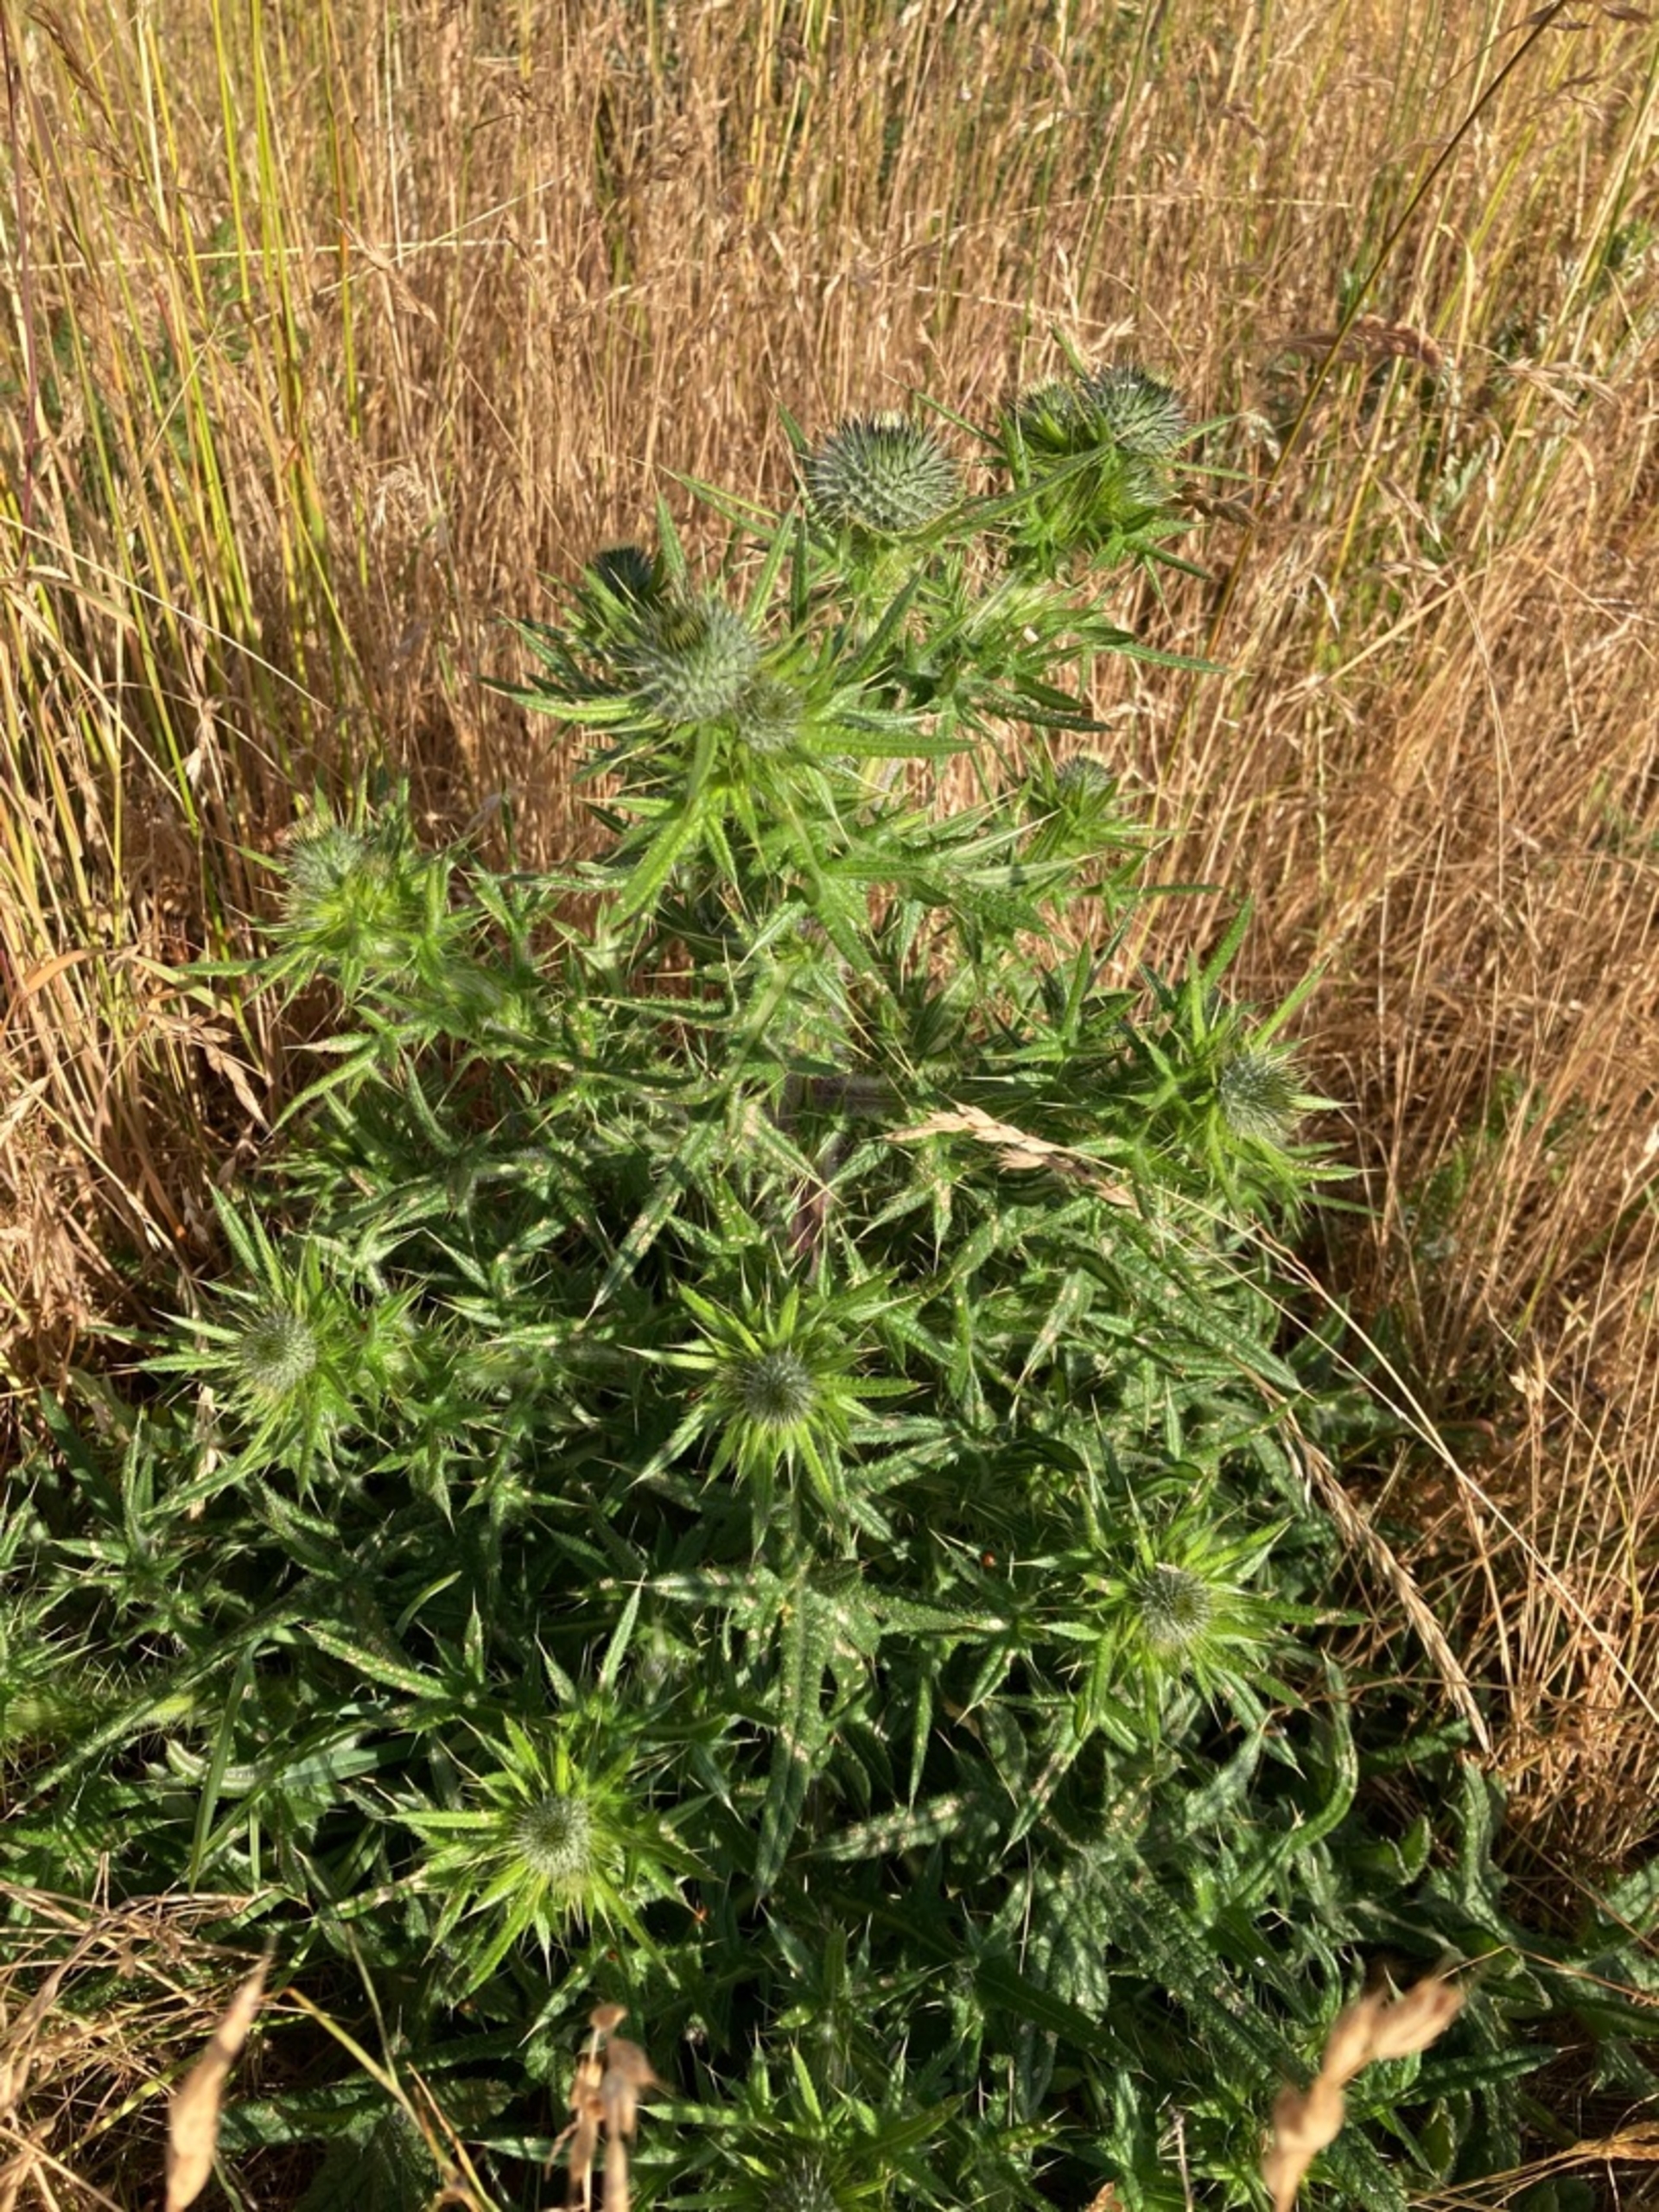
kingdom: Plantae
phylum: Tracheophyta
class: Magnoliopsida
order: Asterales
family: Asteraceae
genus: Cirsium
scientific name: Cirsium vulgare
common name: Horse-tidsel
